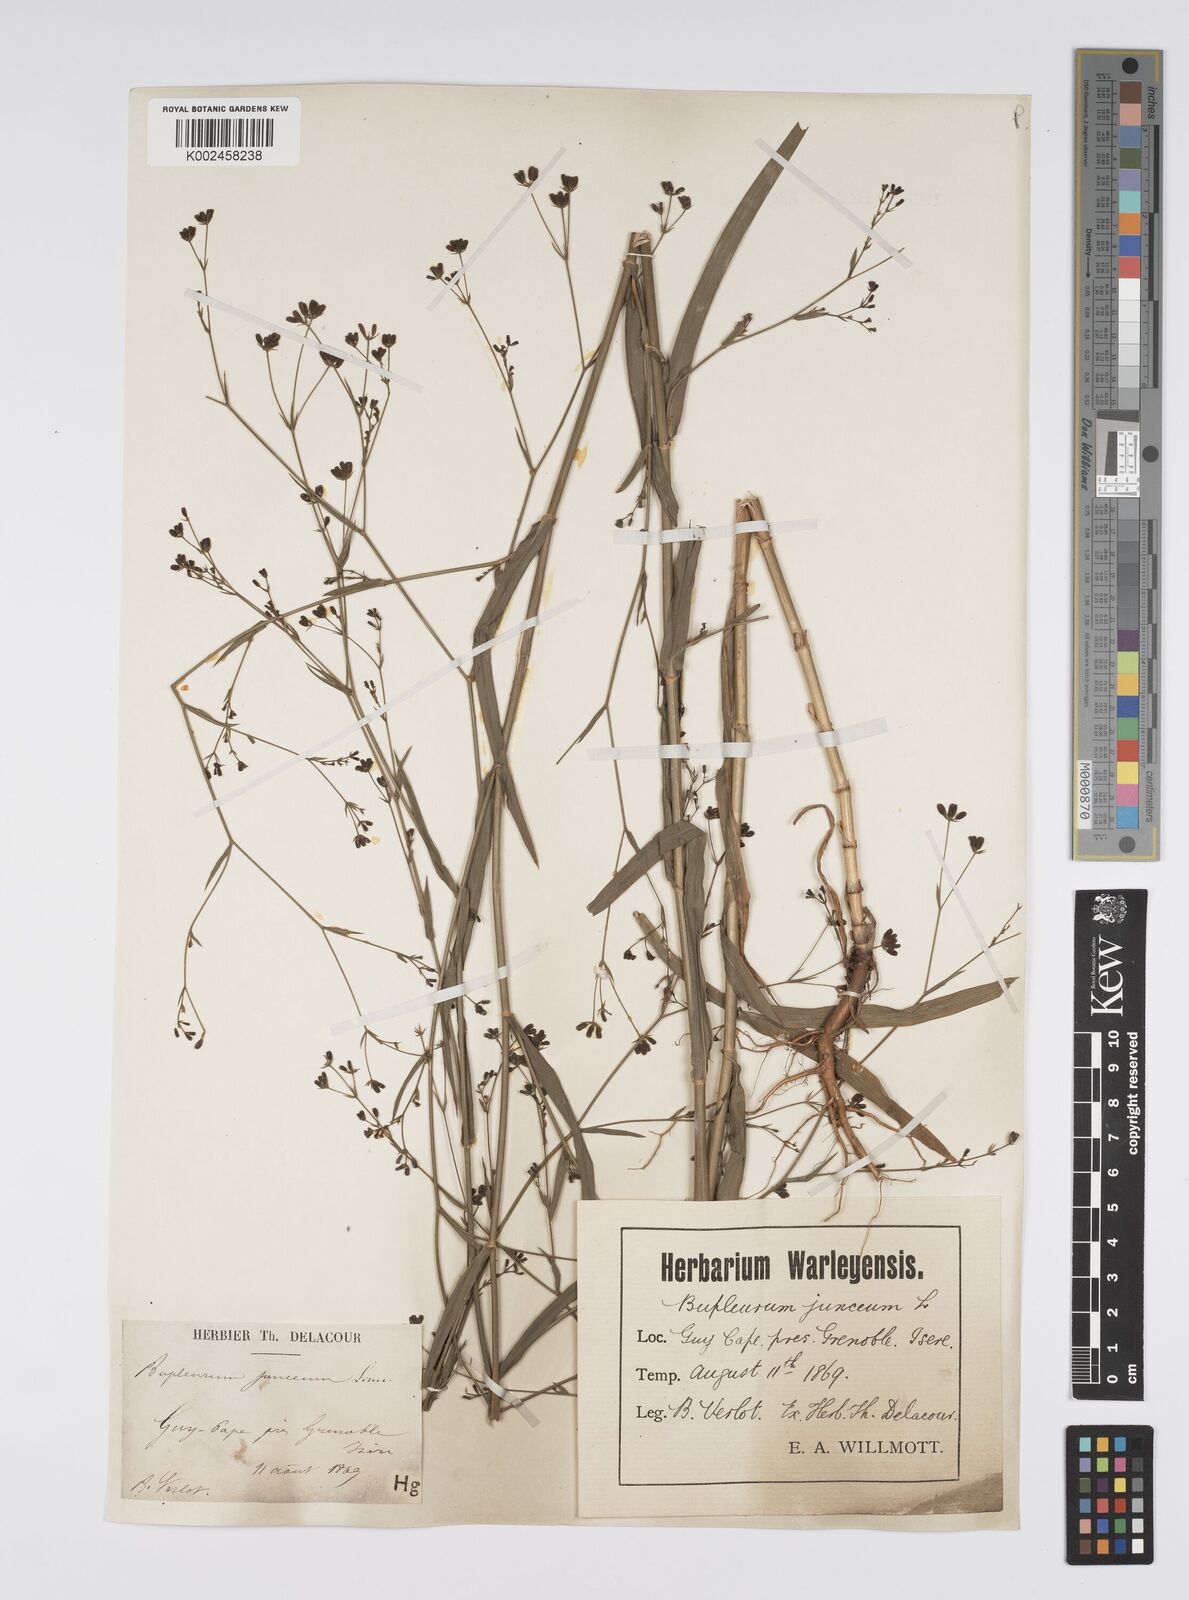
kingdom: Plantae
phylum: Tracheophyta
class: Magnoliopsida
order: Apiales
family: Apiaceae
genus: Bupleurum
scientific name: Bupleurum praealtum
